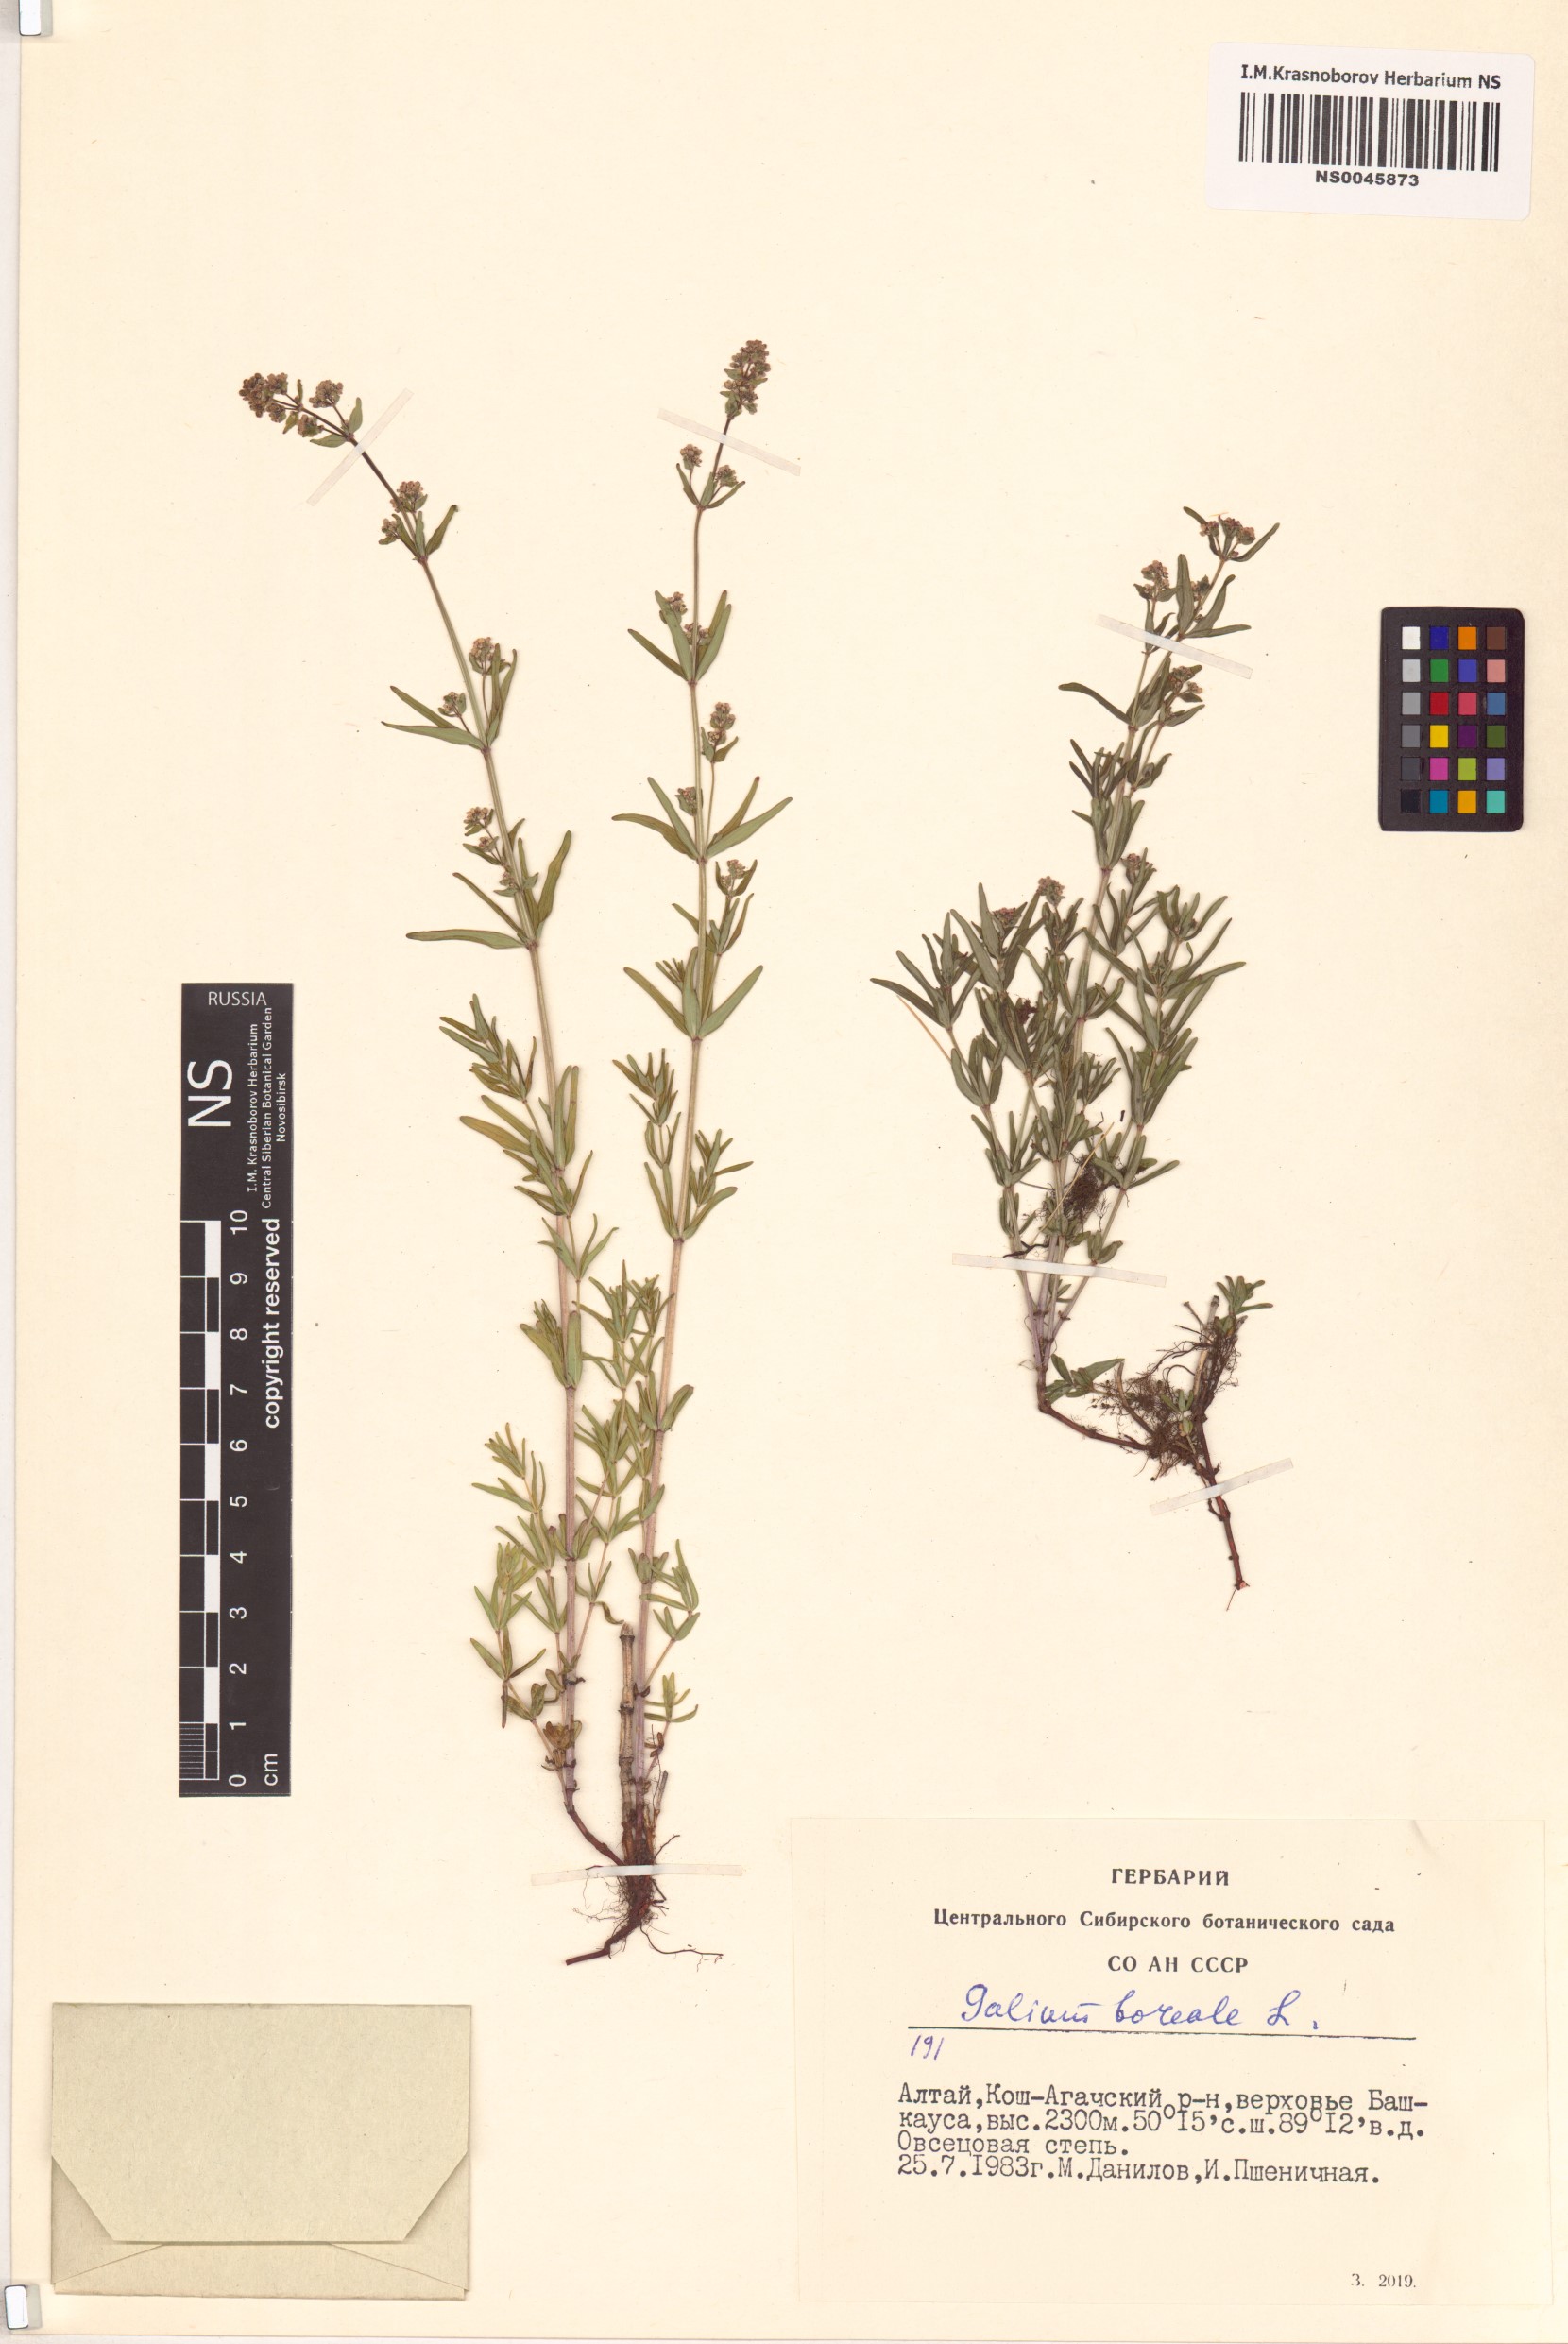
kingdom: Plantae
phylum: Tracheophyta
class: Magnoliopsida
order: Gentianales
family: Rubiaceae
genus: Galium
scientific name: Galium boreale
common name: Northern bedstraw
